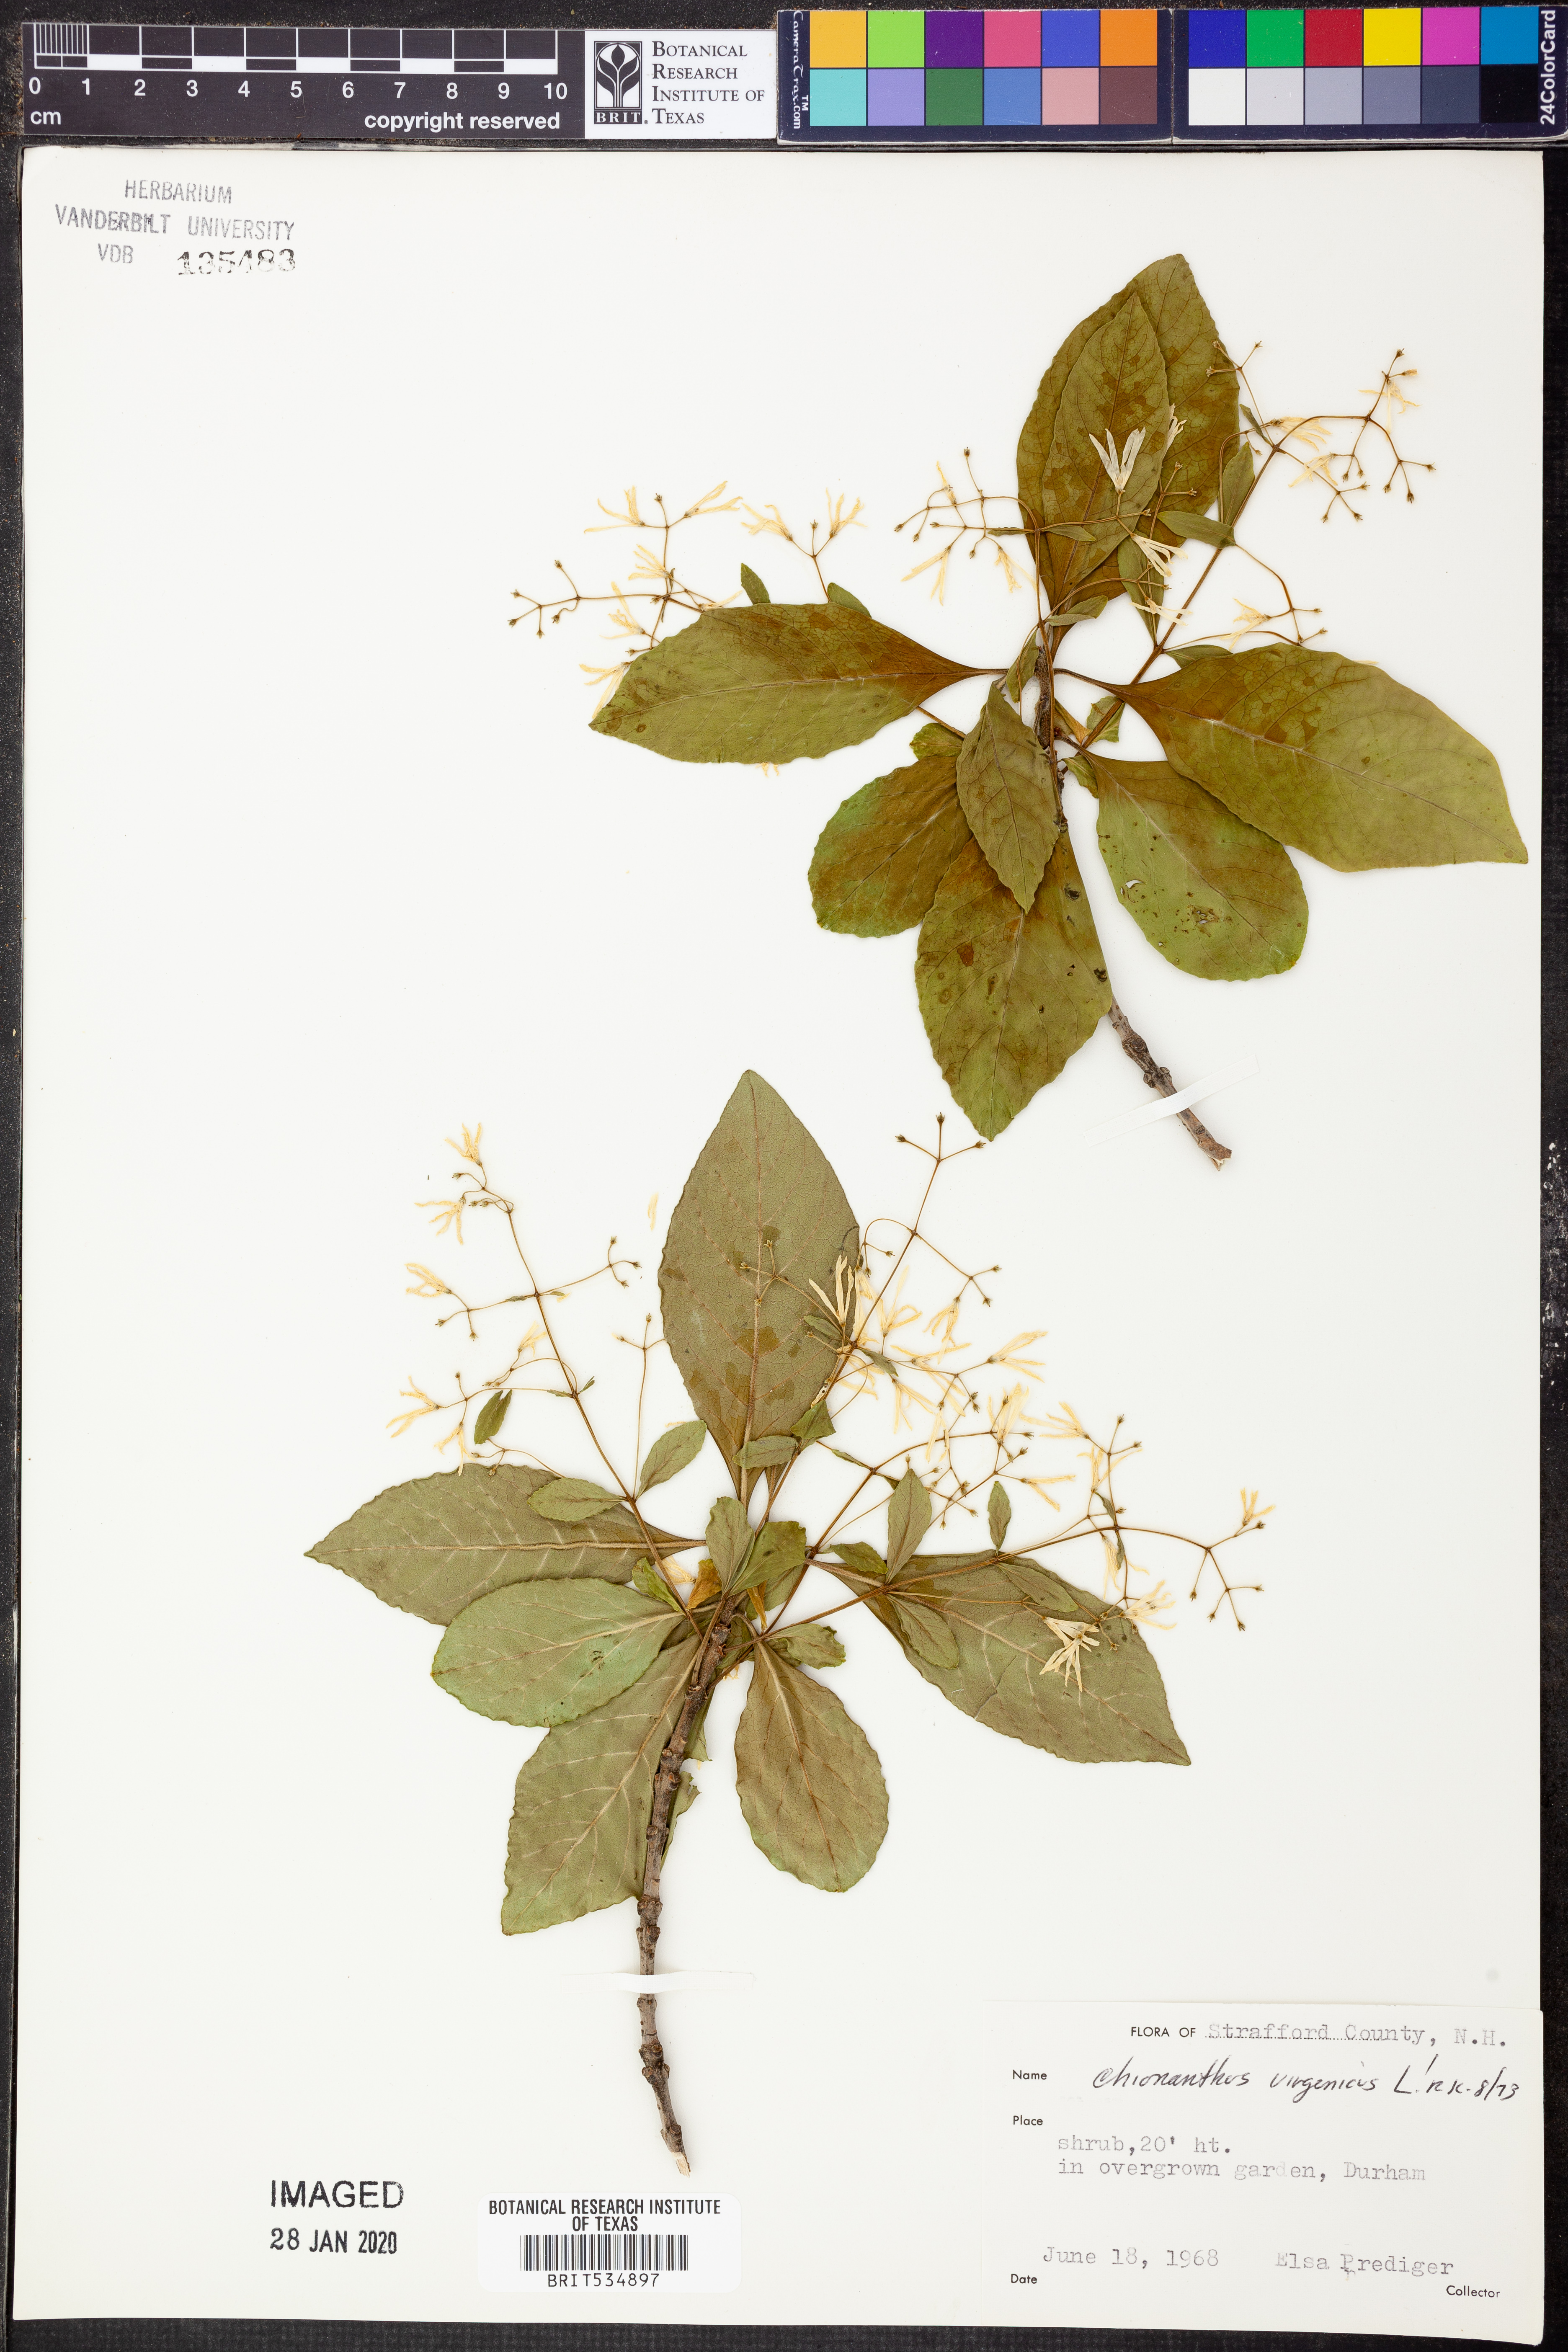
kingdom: Plantae
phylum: Tracheophyta
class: Magnoliopsida
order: Lamiales
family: Oleaceae
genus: Chionanthus
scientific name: Chionanthus virginicus
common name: American fringetree
